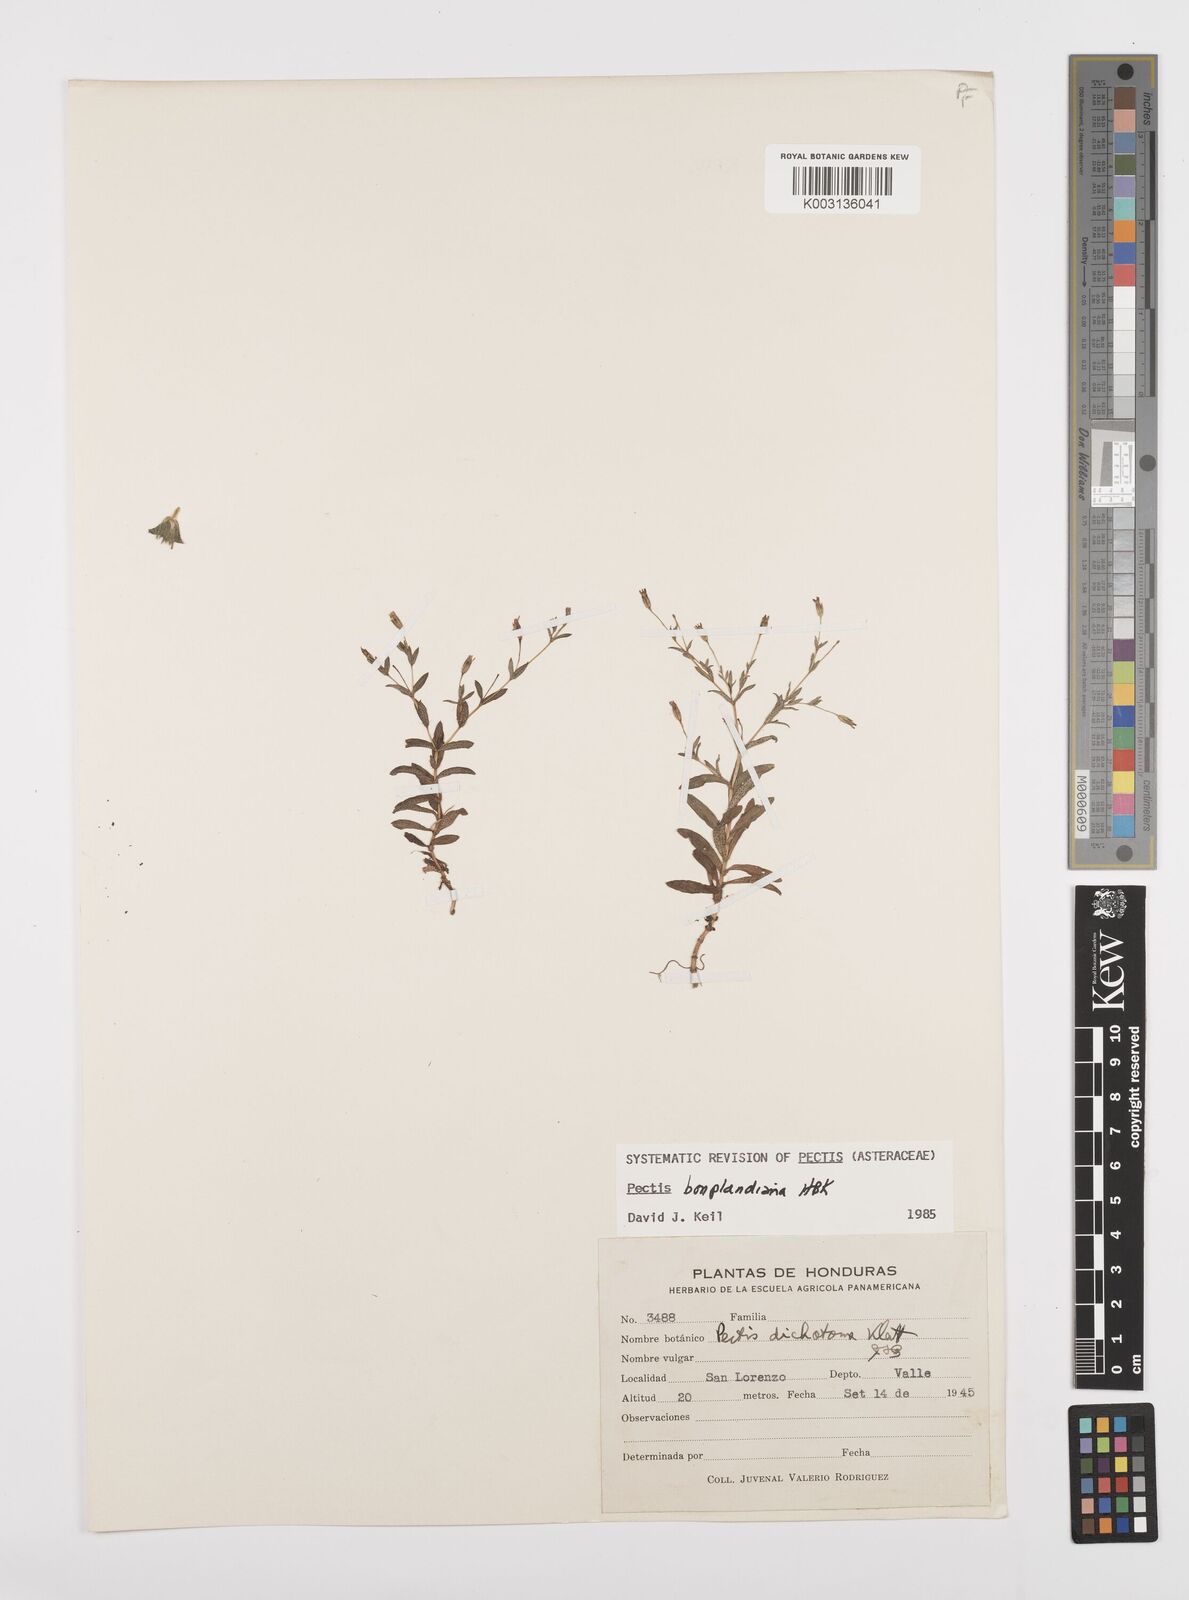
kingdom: Plantae
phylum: Tracheophyta
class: Magnoliopsida
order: Asterales
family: Asteraceae
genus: Pectis
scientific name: Pectis uniaristata
